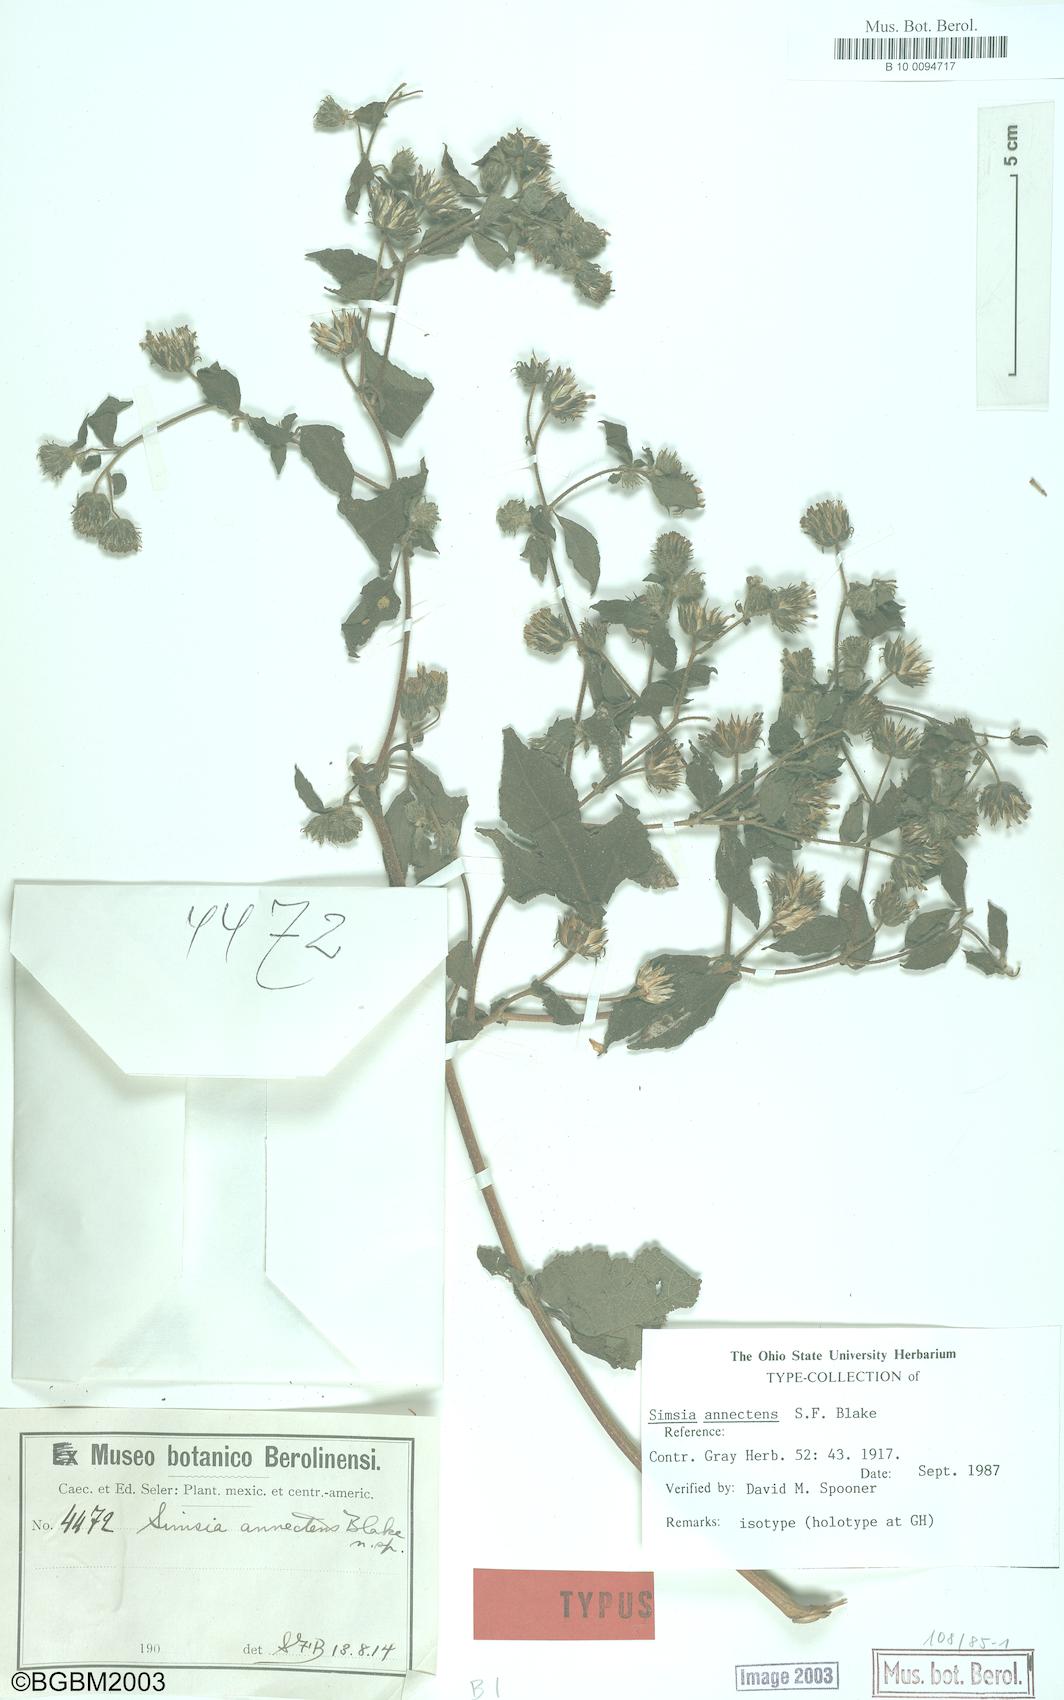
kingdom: Plantae
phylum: Tracheophyta
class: Magnoliopsida
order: Asterales
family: Asteraceae
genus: Simsia
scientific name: Simsia annectens
